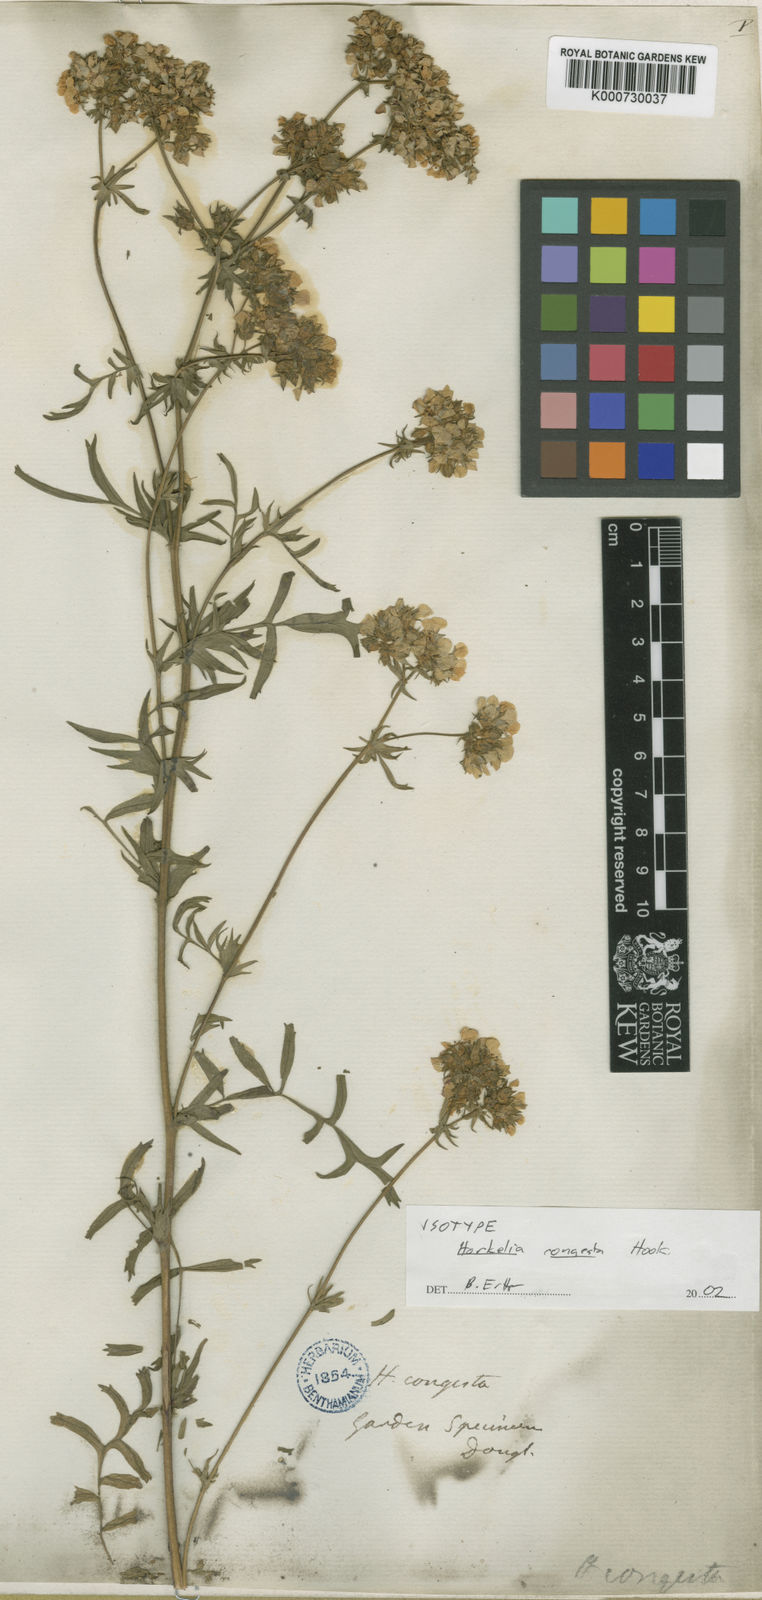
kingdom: Plantae
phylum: Tracheophyta
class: Magnoliopsida
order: Rosales
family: Rosaceae
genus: Potentilla
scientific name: Potentilla congesta
